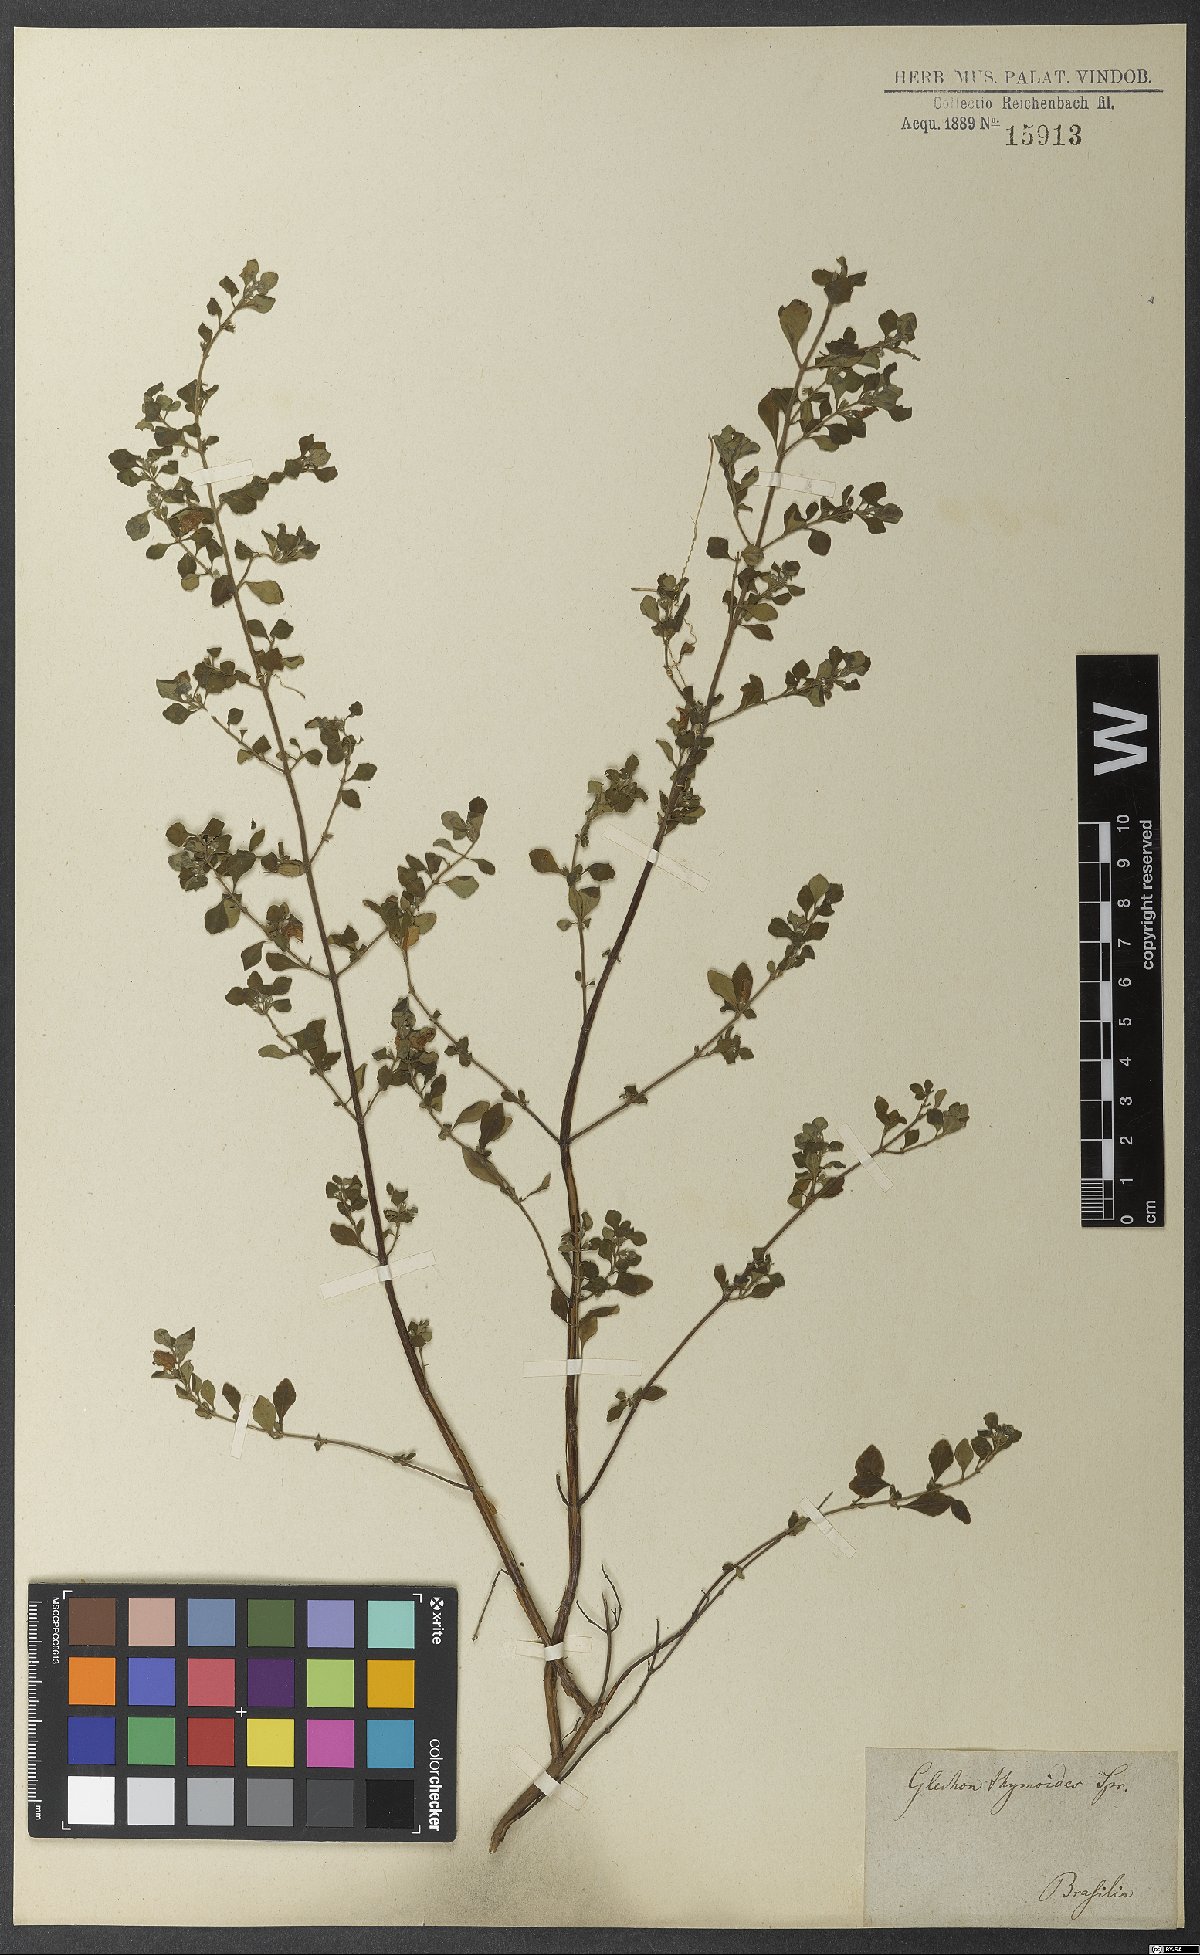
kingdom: Plantae
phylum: Tracheophyta
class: Magnoliopsida
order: Lamiales
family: Lamiaceae
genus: Glechon
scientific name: Glechon thymoides
